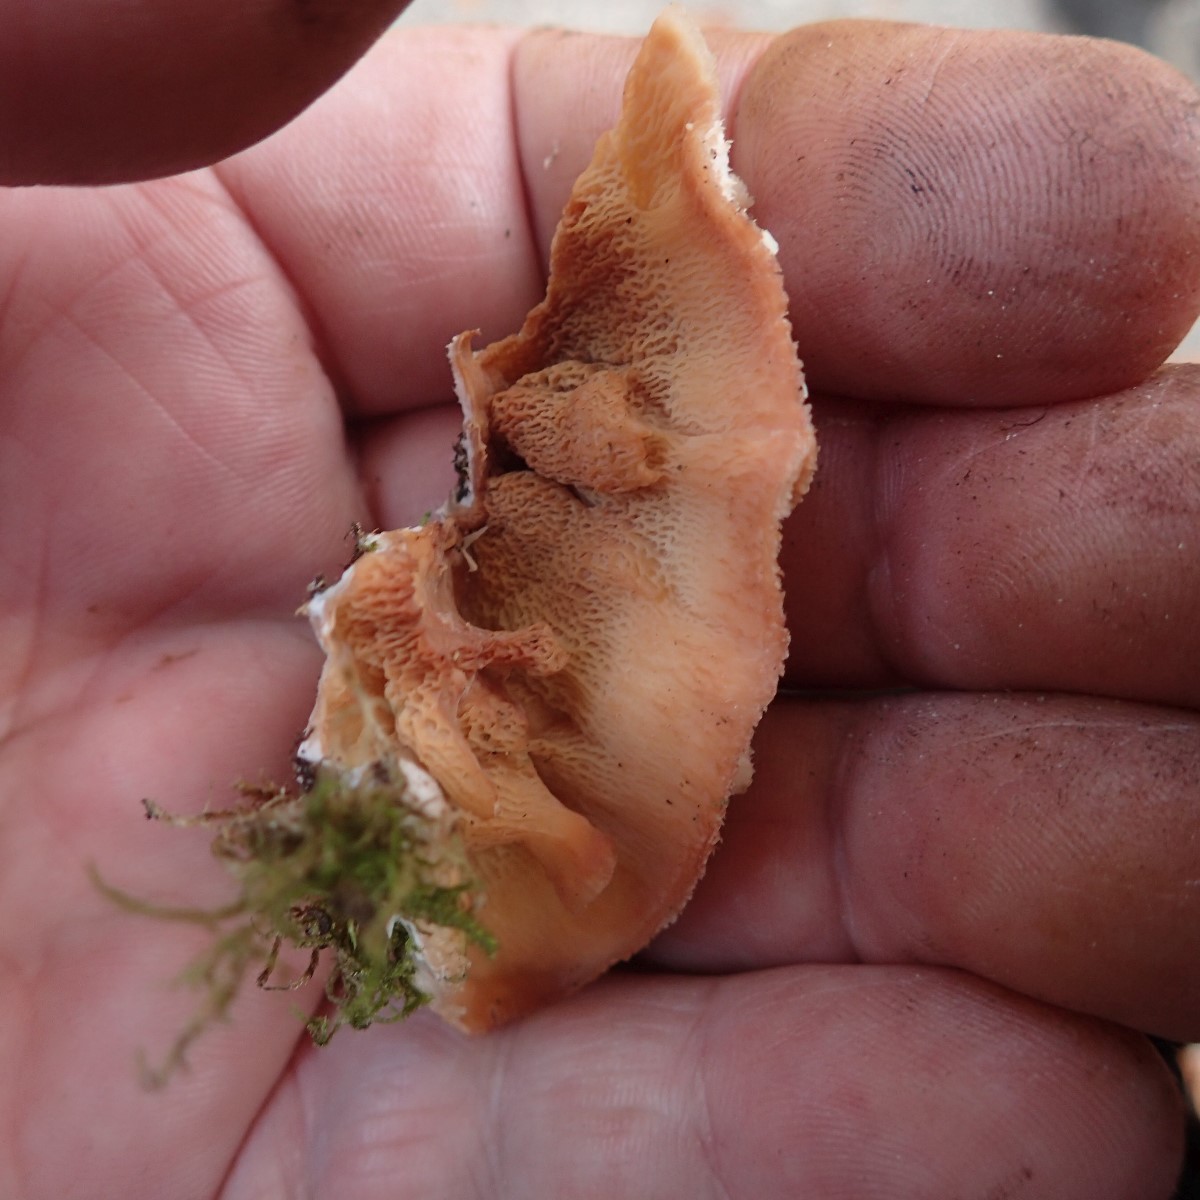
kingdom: Fungi
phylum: Basidiomycota
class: Agaricomycetes
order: Polyporales
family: Meruliaceae
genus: Phlebia
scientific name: Phlebia tremellosa
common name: bævrende åresvamp
